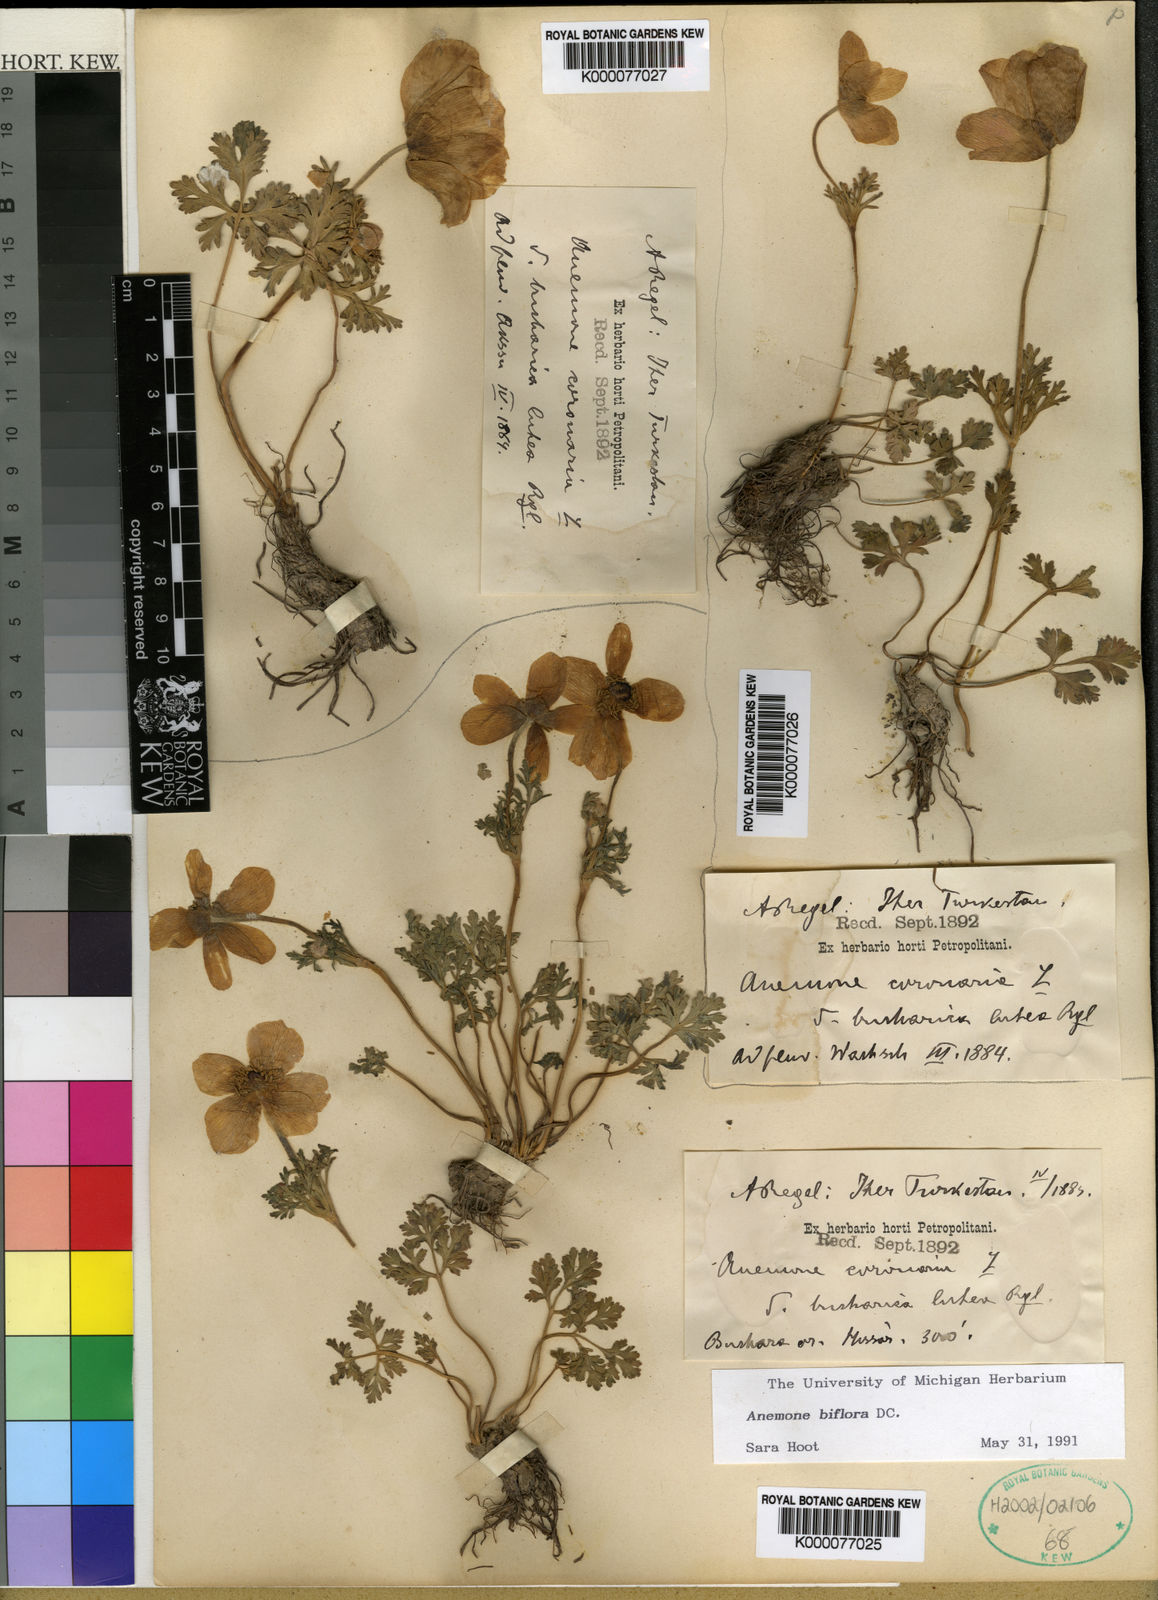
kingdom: Plantae
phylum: Tracheophyta
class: Magnoliopsida
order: Ranunculales
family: Ranunculaceae
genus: Anemone
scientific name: Anemone biflora
